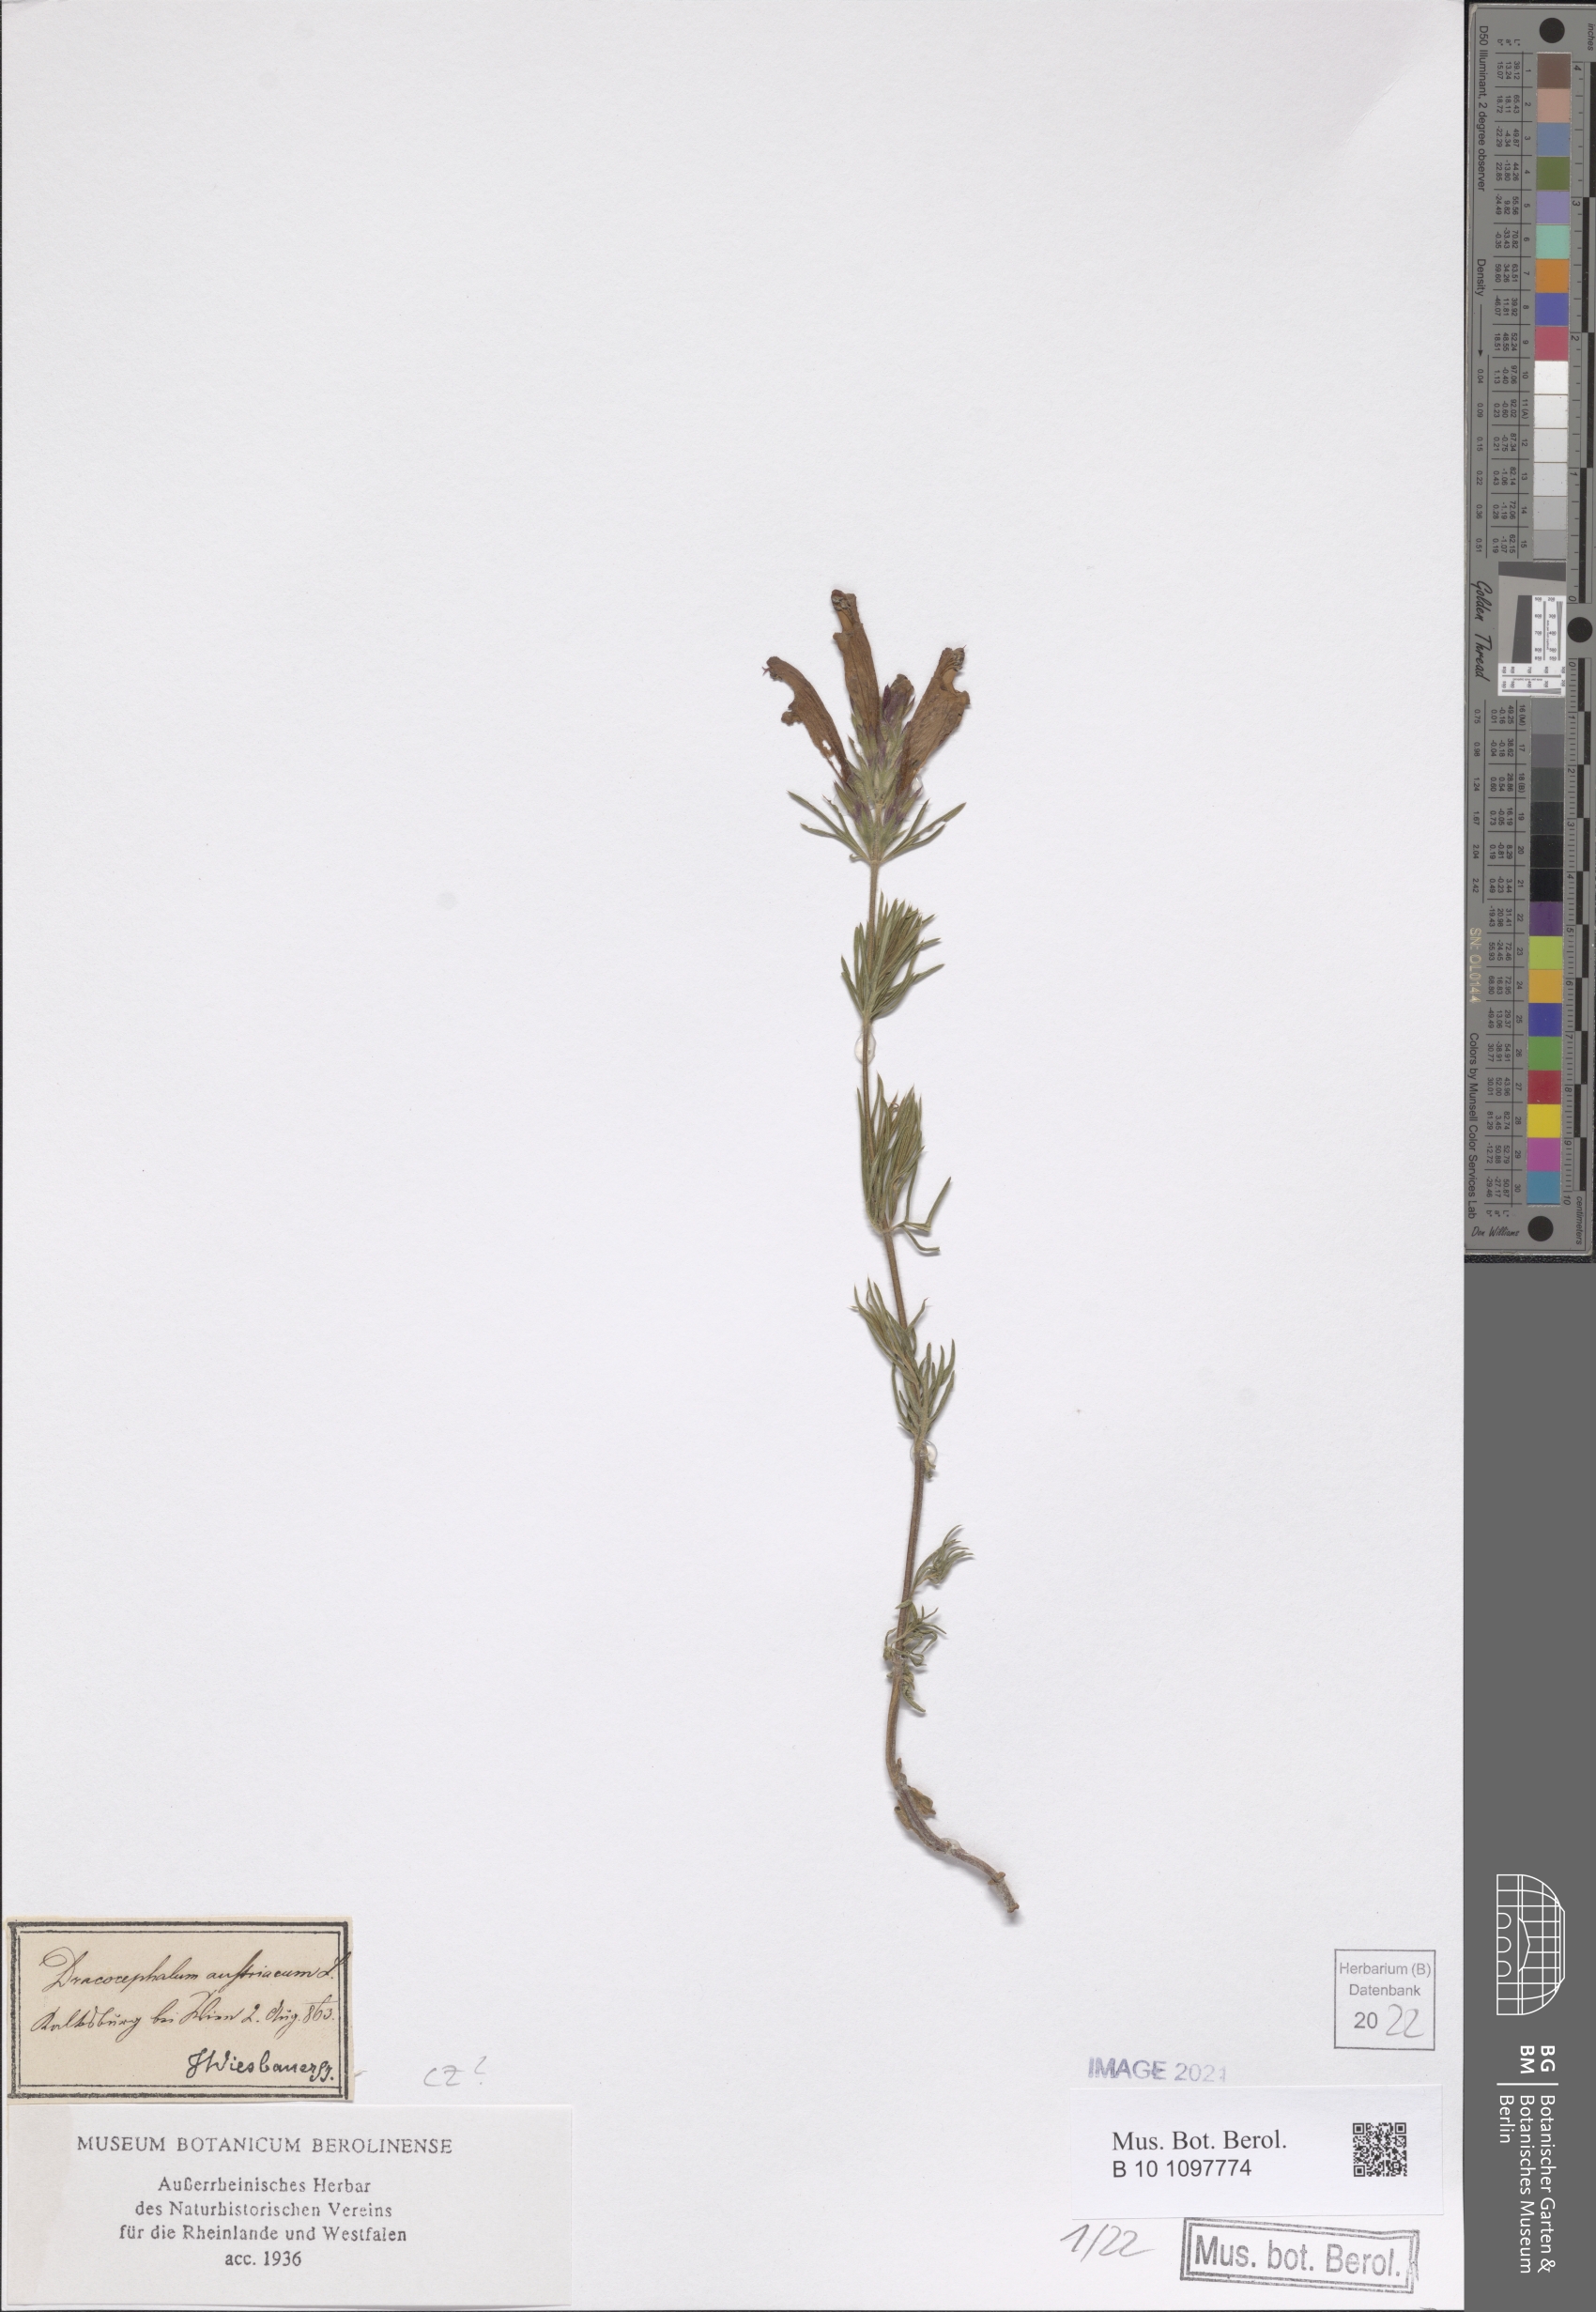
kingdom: Plantae
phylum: Tracheophyta
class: Magnoliopsida
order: Lamiales
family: Lamiaceae
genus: Dracocephalum
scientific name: Dracocephalum austriacum
